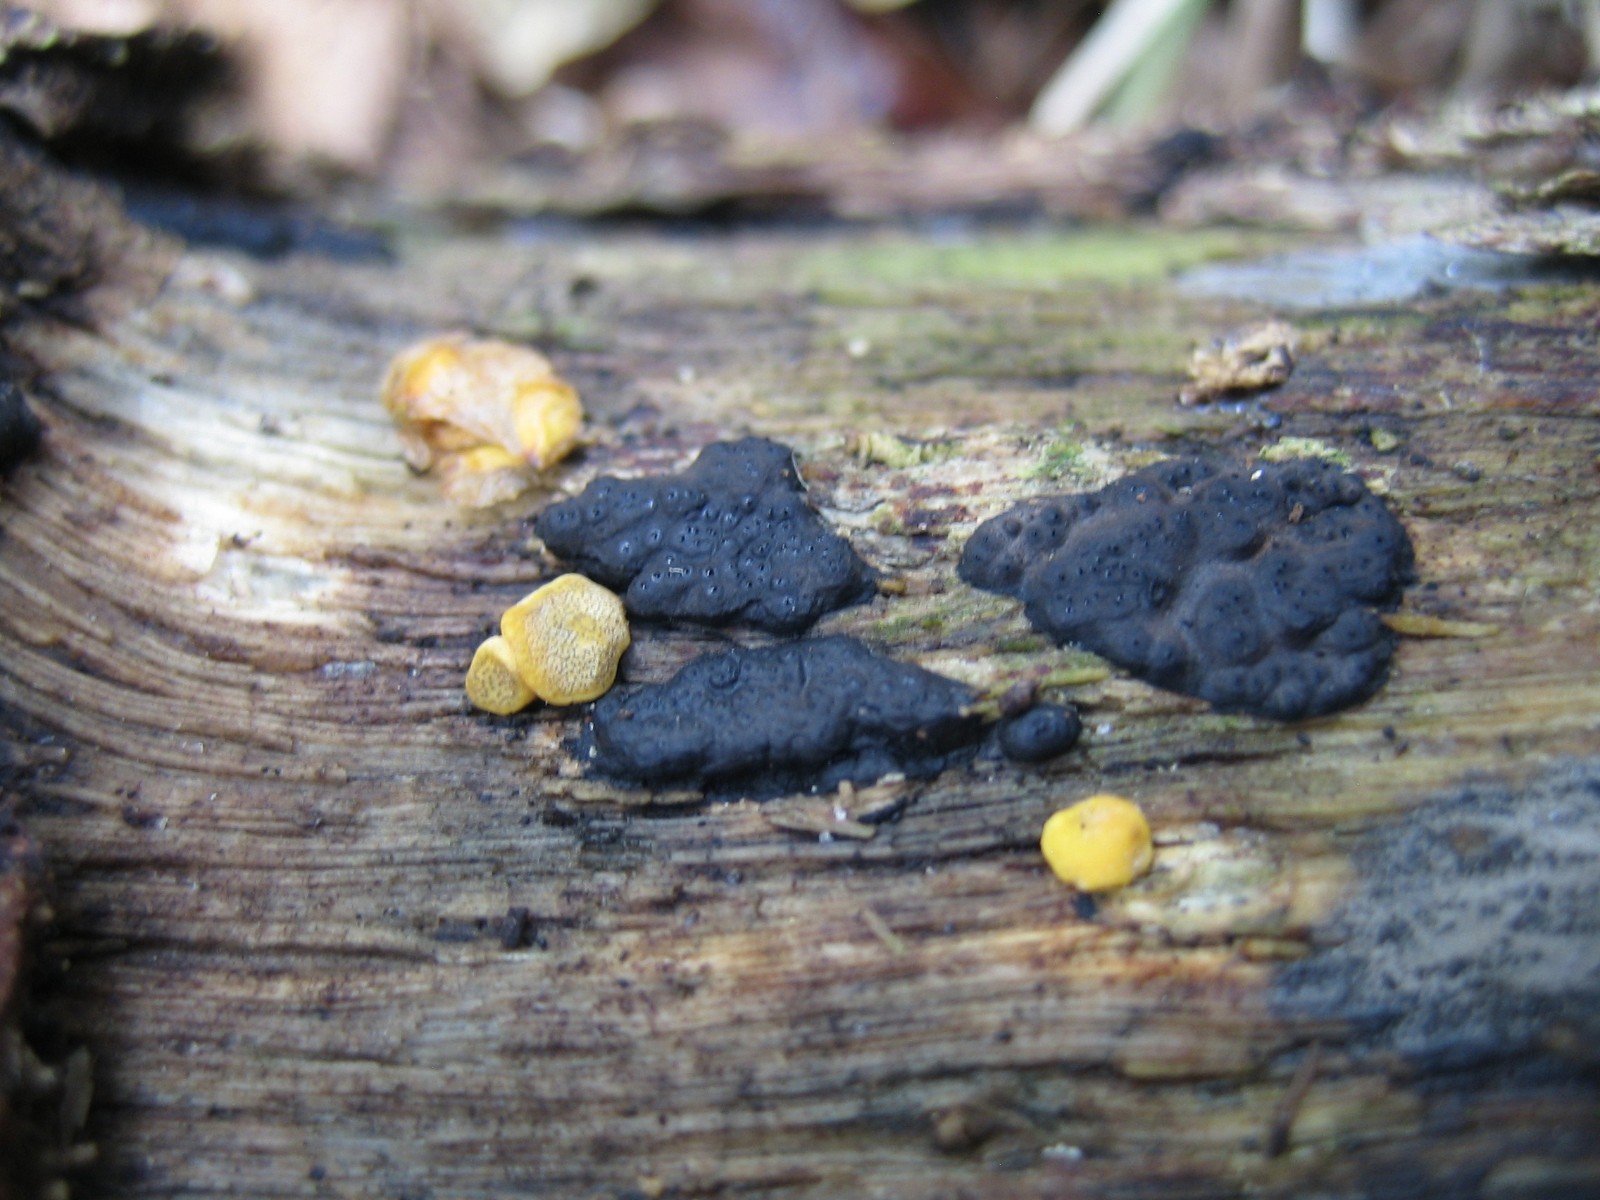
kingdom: Fungi
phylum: Ascomycota
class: Sordariomycetes
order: Hypocreales
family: Hypocreaceae
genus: Trichoderma
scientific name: Trichoderma aureoviride
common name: æggegul kødkerne
